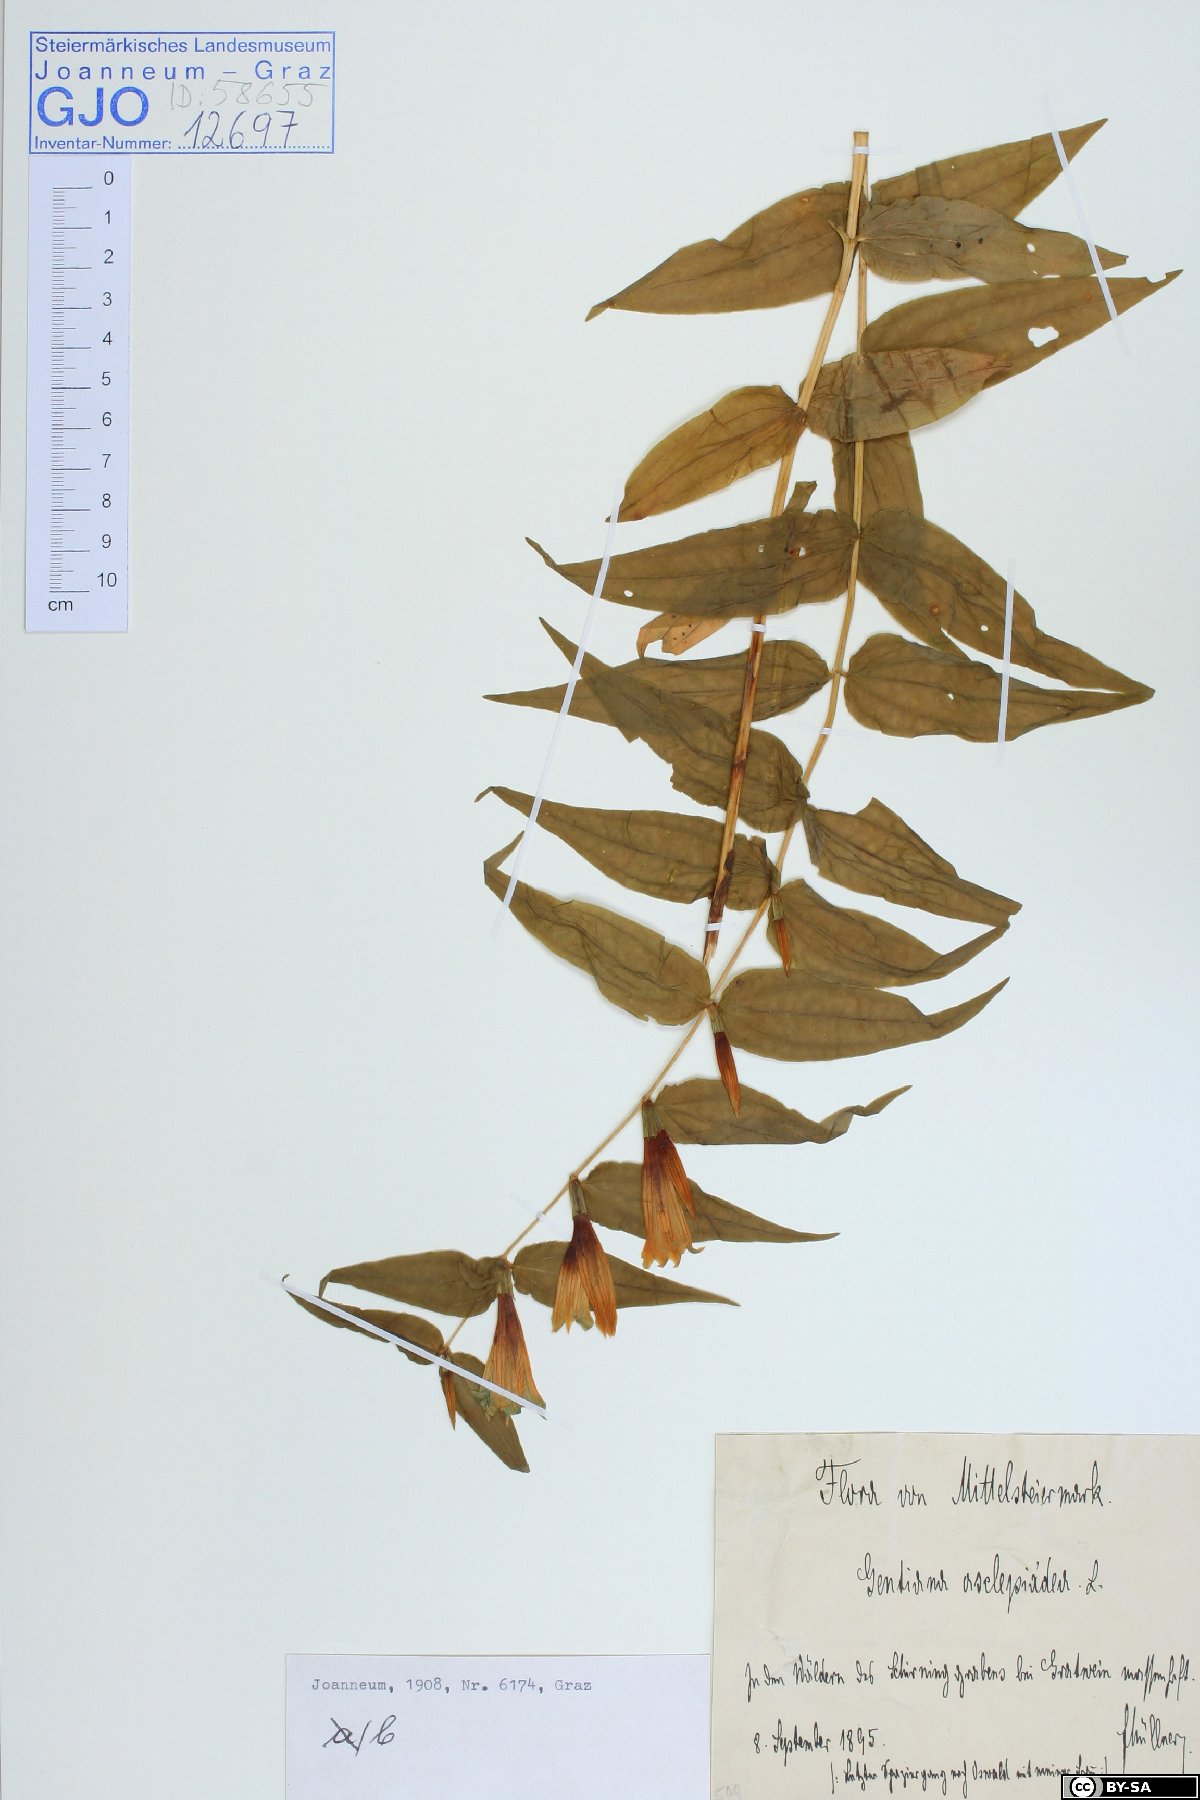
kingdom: Plantae
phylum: Tracheophyta
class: Magnoliopsida
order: Gentianales
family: Gentianaceae
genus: Gentiana
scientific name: Gentiana asclepiadea
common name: Willow gentian
